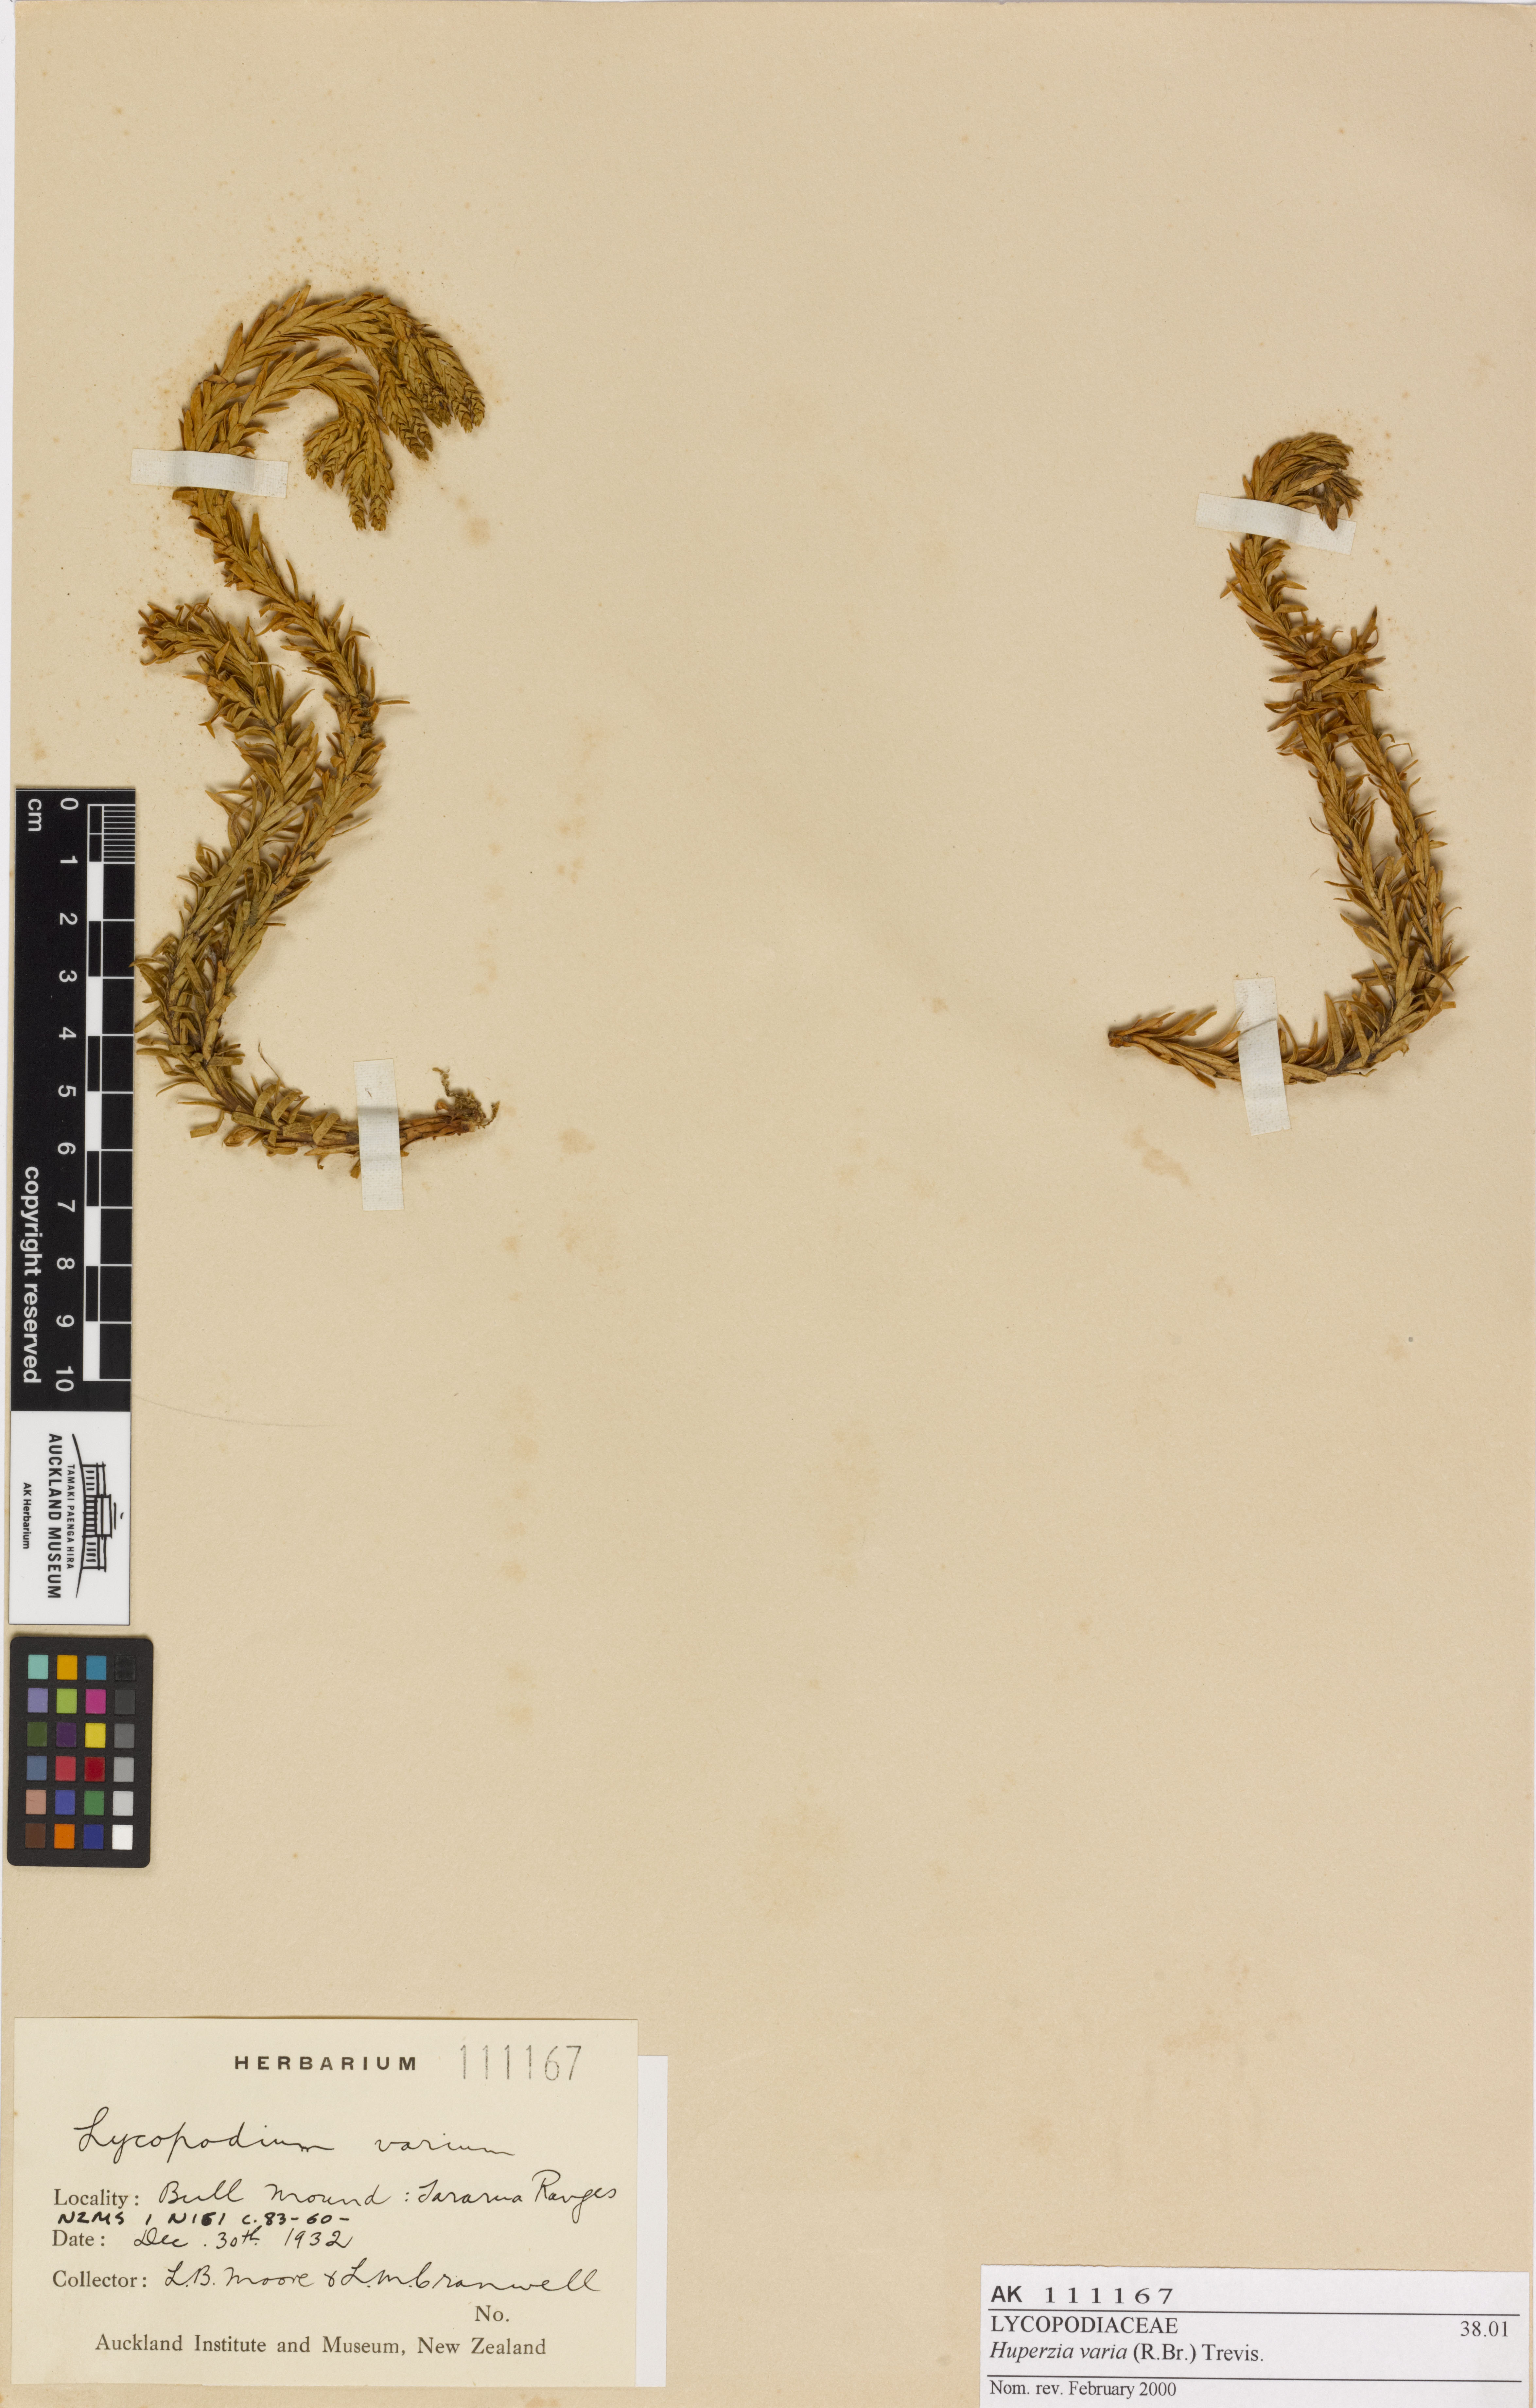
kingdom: Plantae
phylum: Tracheophyta
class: Lycopodiopsida
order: Lycopodiales
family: Lycopodiaceae
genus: Phlegmariurus
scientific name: Phlegmariurus varius
